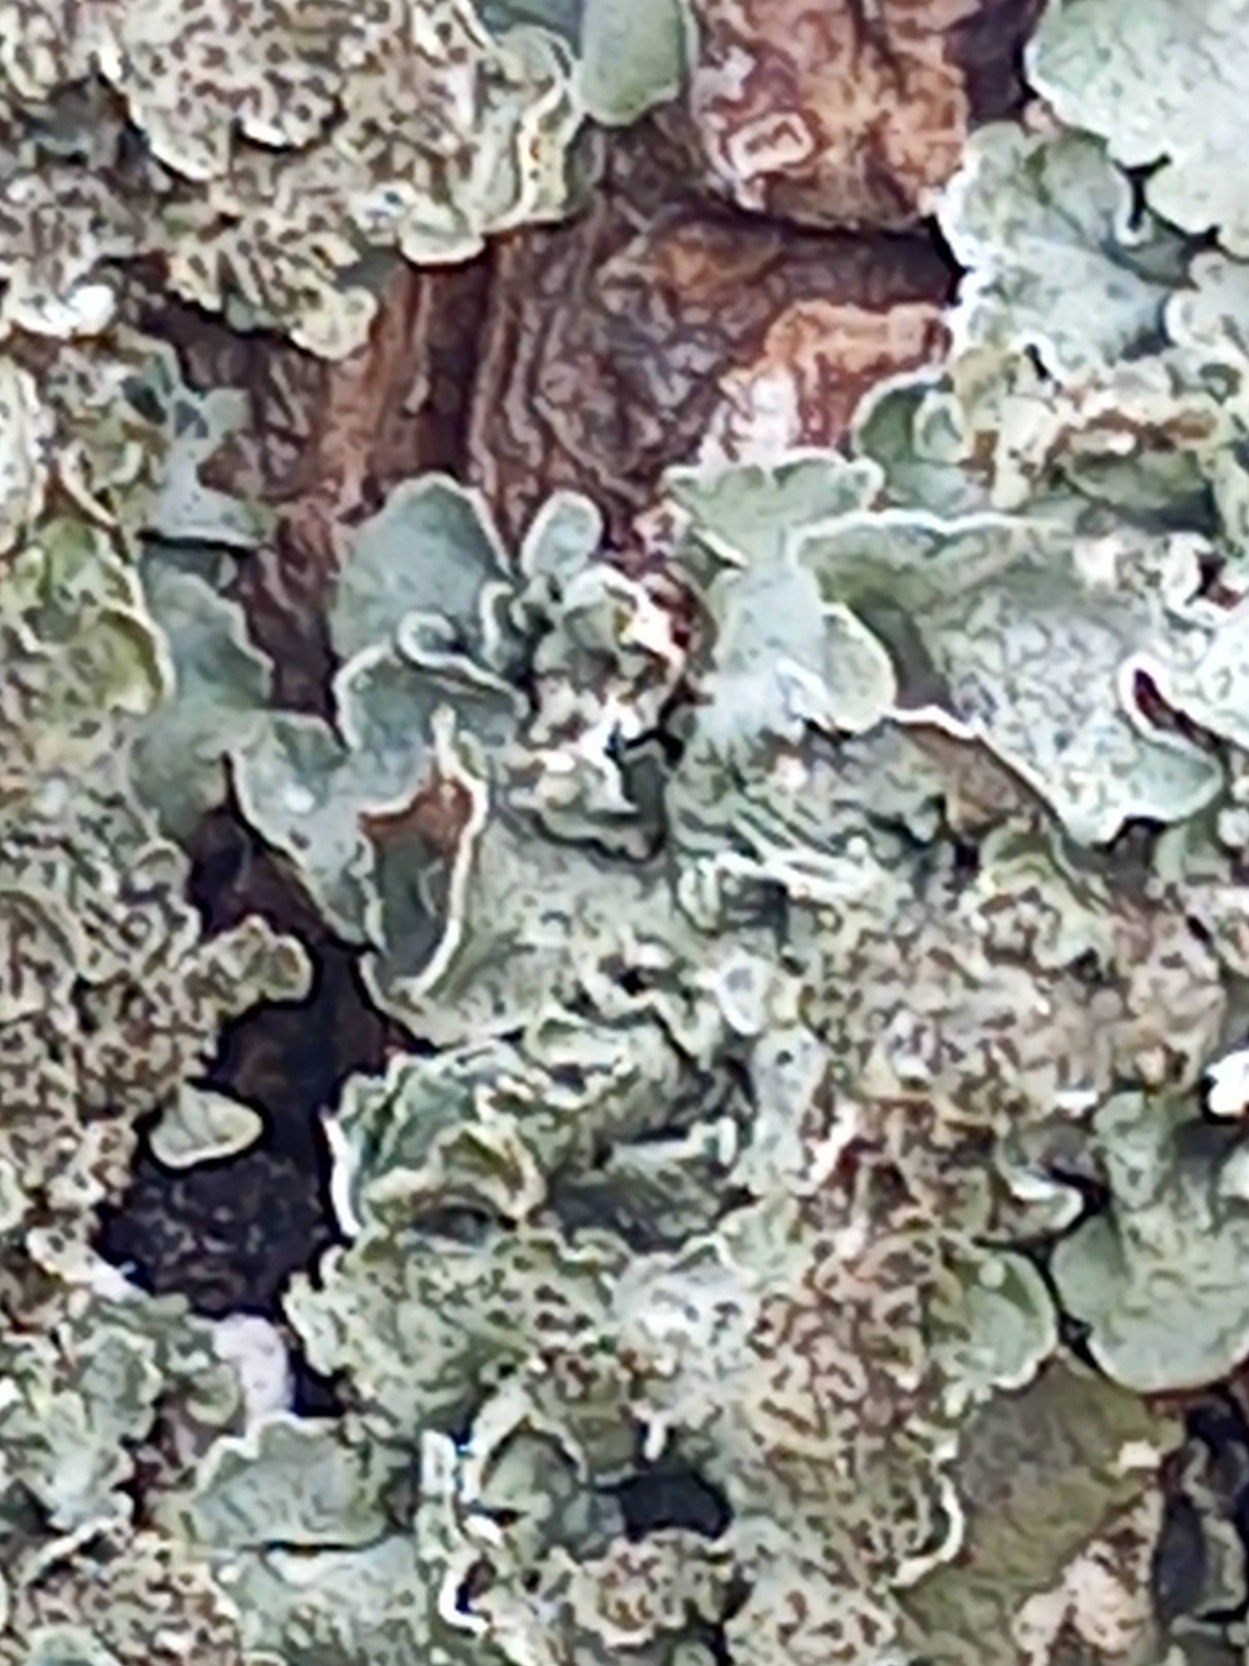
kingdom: Fungi
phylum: Ascomycota
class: Lecanoromycetes
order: Lecanorales
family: Parmeliaceae
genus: Pleurosticta
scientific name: Pleurosticta acetabulum
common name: Stor skållav
